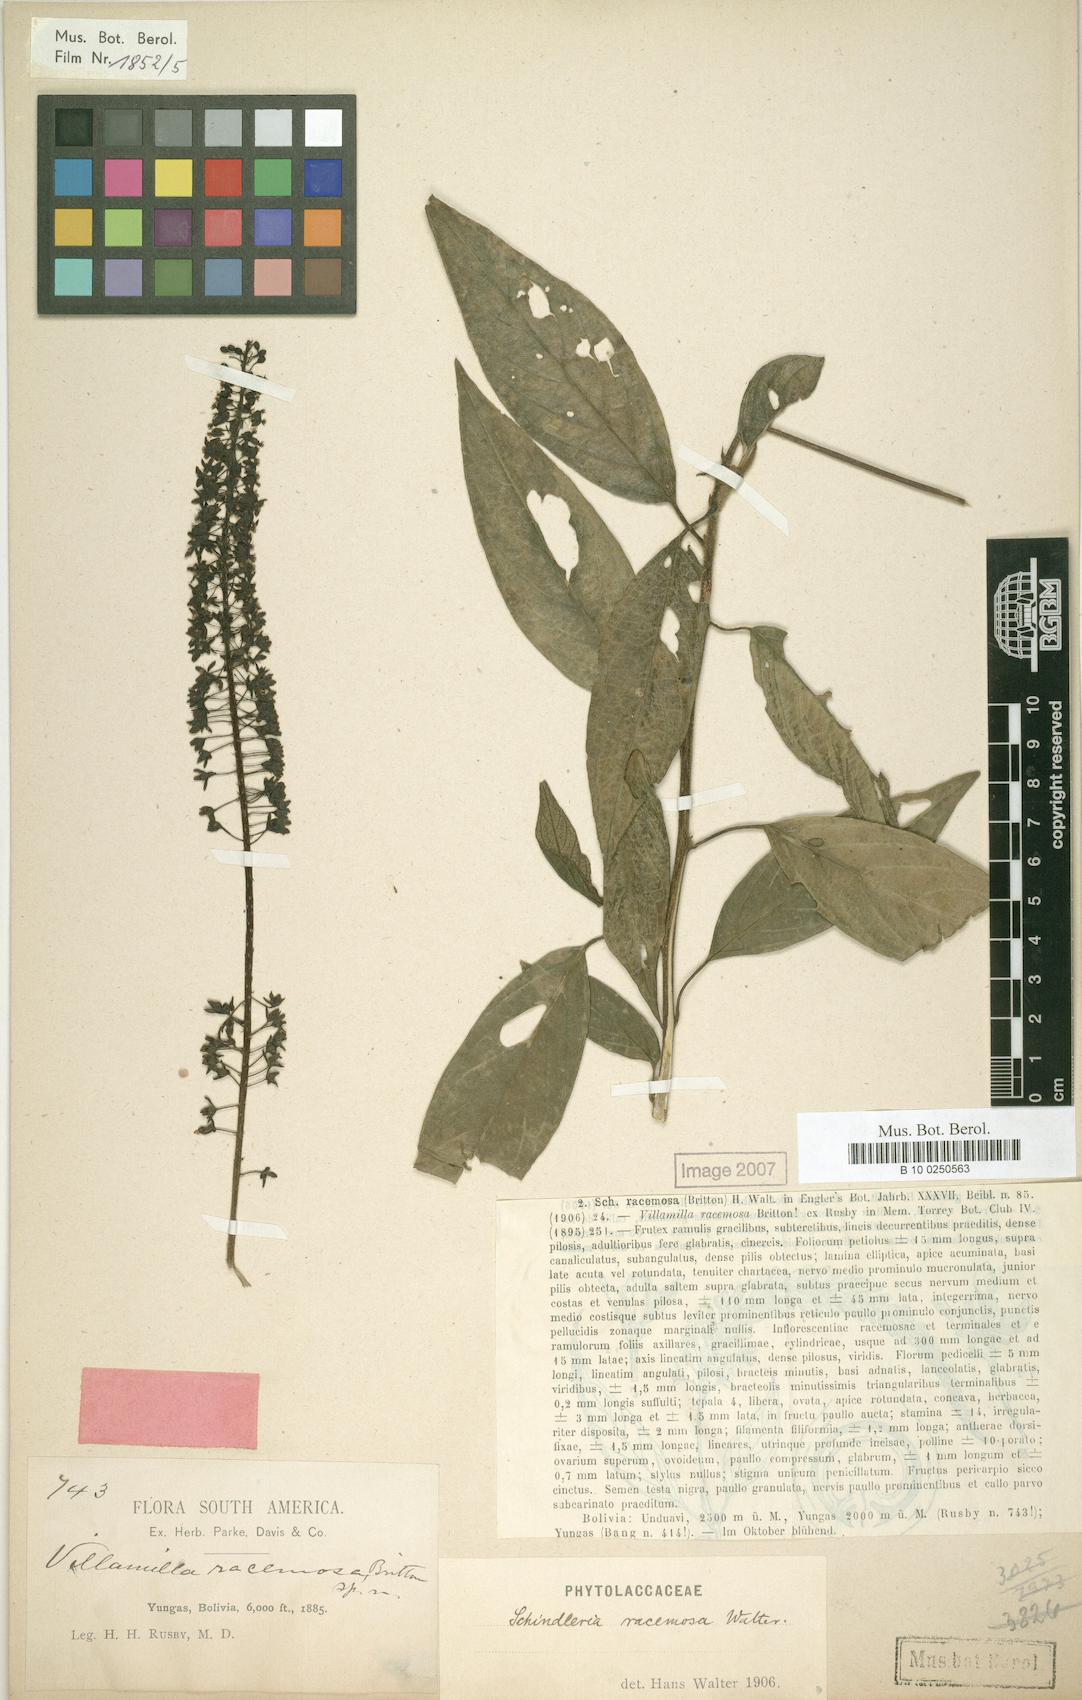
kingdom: Plantae
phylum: Tracheophyta
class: Magnoliopsida
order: Caryophyllales
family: Phytolaccaceae
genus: Schindleria
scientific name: Schindleria racemosa
